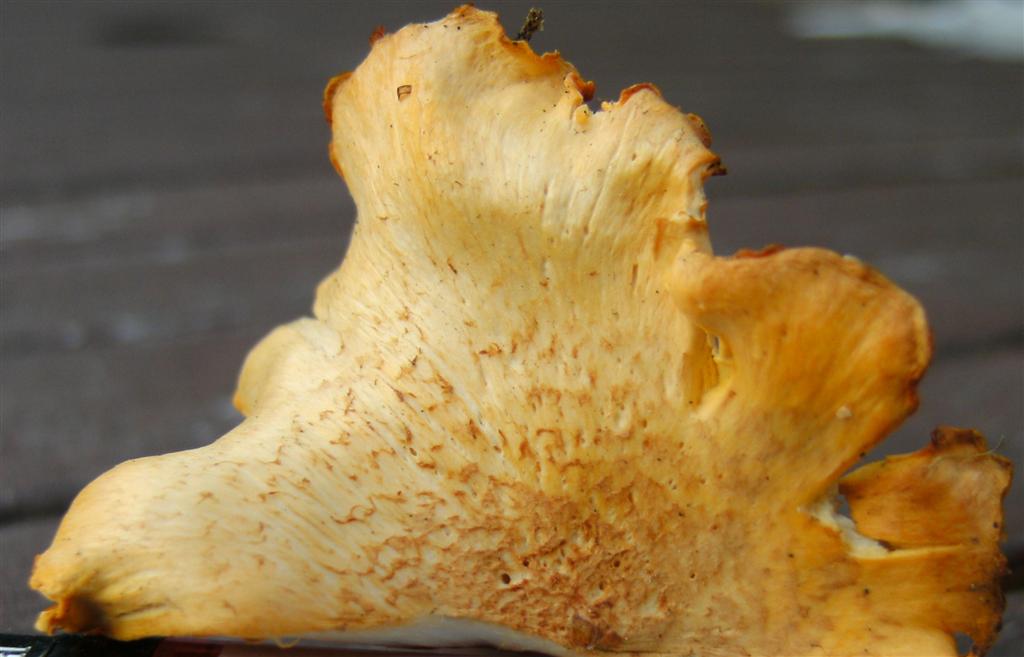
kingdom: Fungi
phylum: Basidiomycota
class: Agaricomycetes
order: Cantharellales
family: Hydnaceae
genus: Cantharellus
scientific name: Cantharellus amethysteus
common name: ametyst-kantarel
